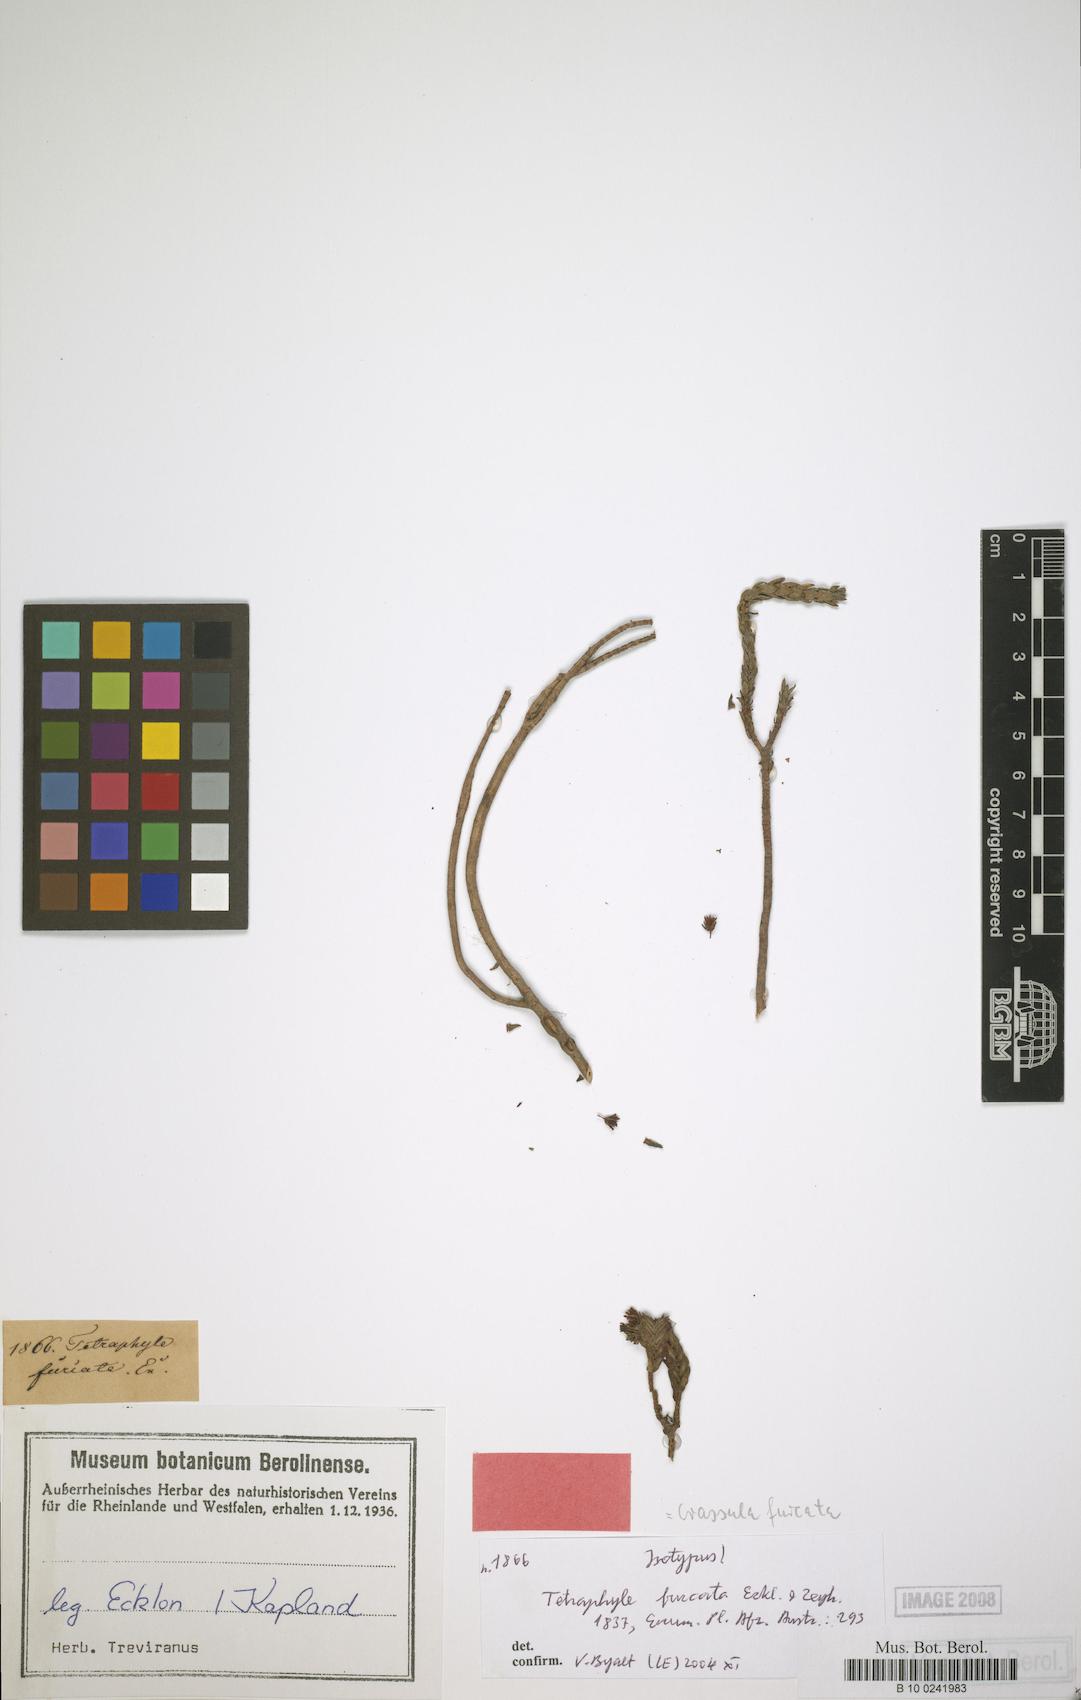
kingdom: Plantae
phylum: Tracheophyta
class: Magnoliopsida
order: Saxifragales
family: Crassulaceae
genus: Crassula
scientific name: Crassula ericoides
